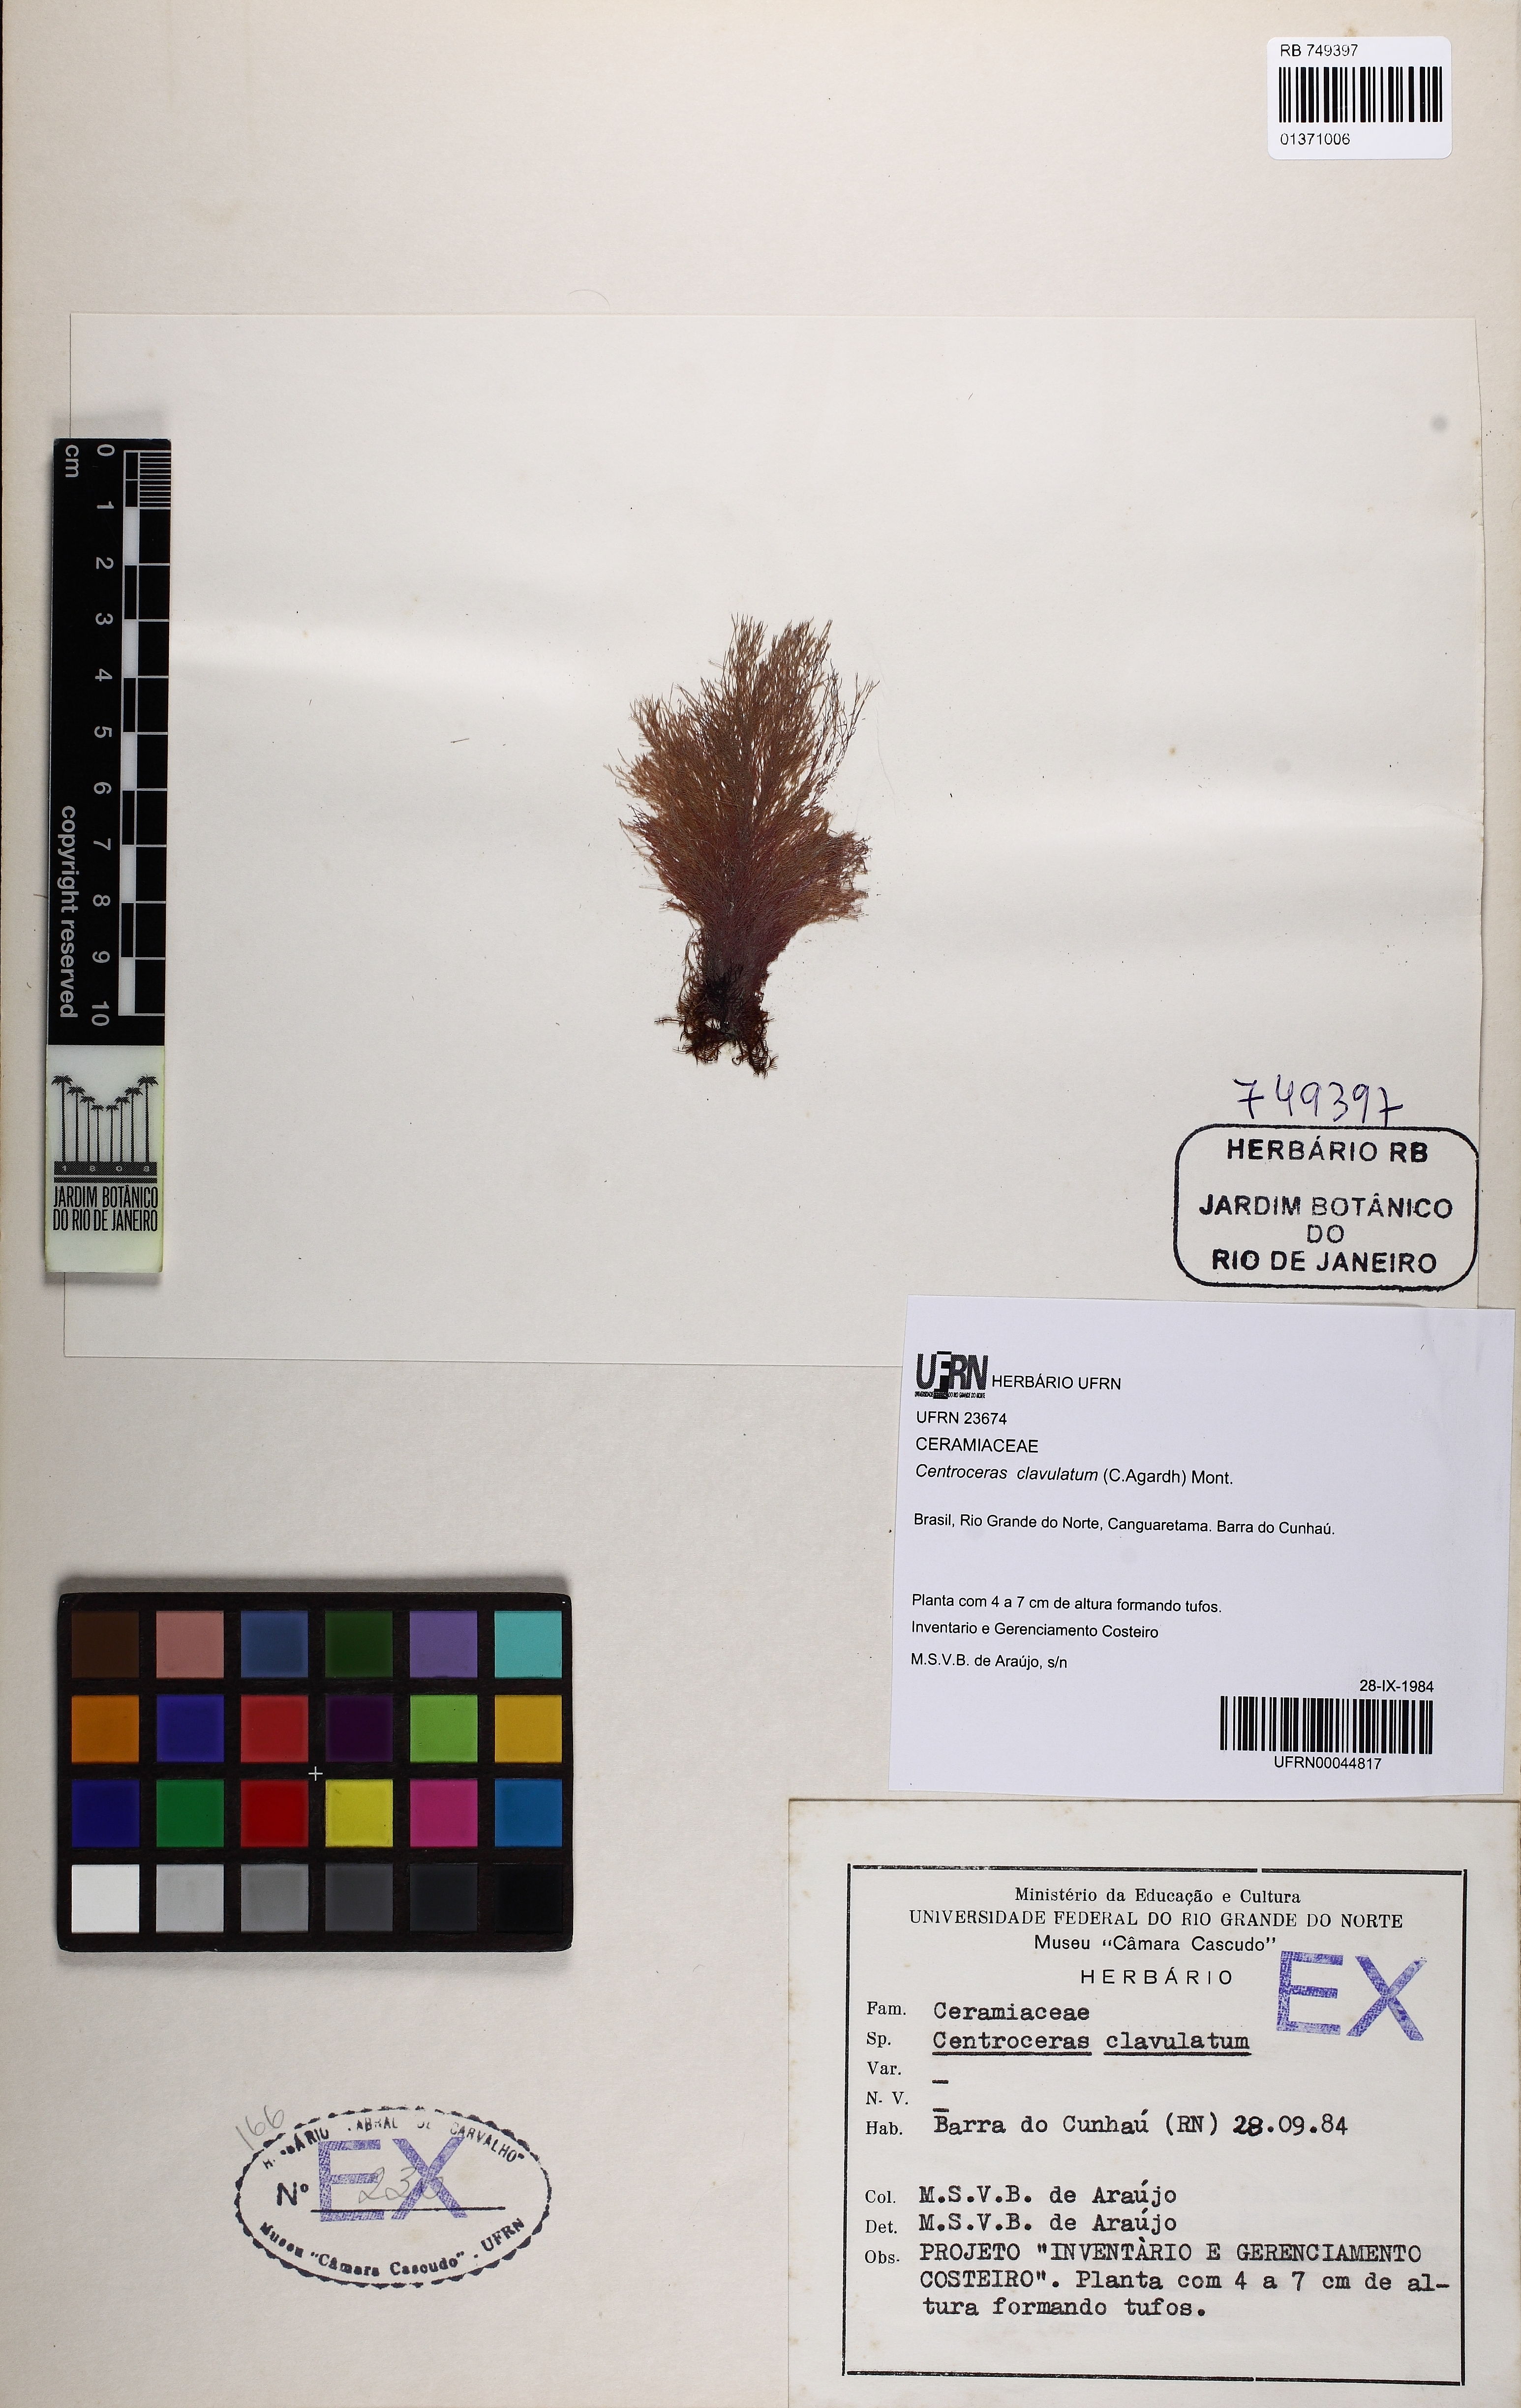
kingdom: Plantae
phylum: Rhodophyta
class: Florideophyceae
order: Ceramiales
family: Ceramiaceae
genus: Centroceras
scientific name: Centroceras clavulatum
